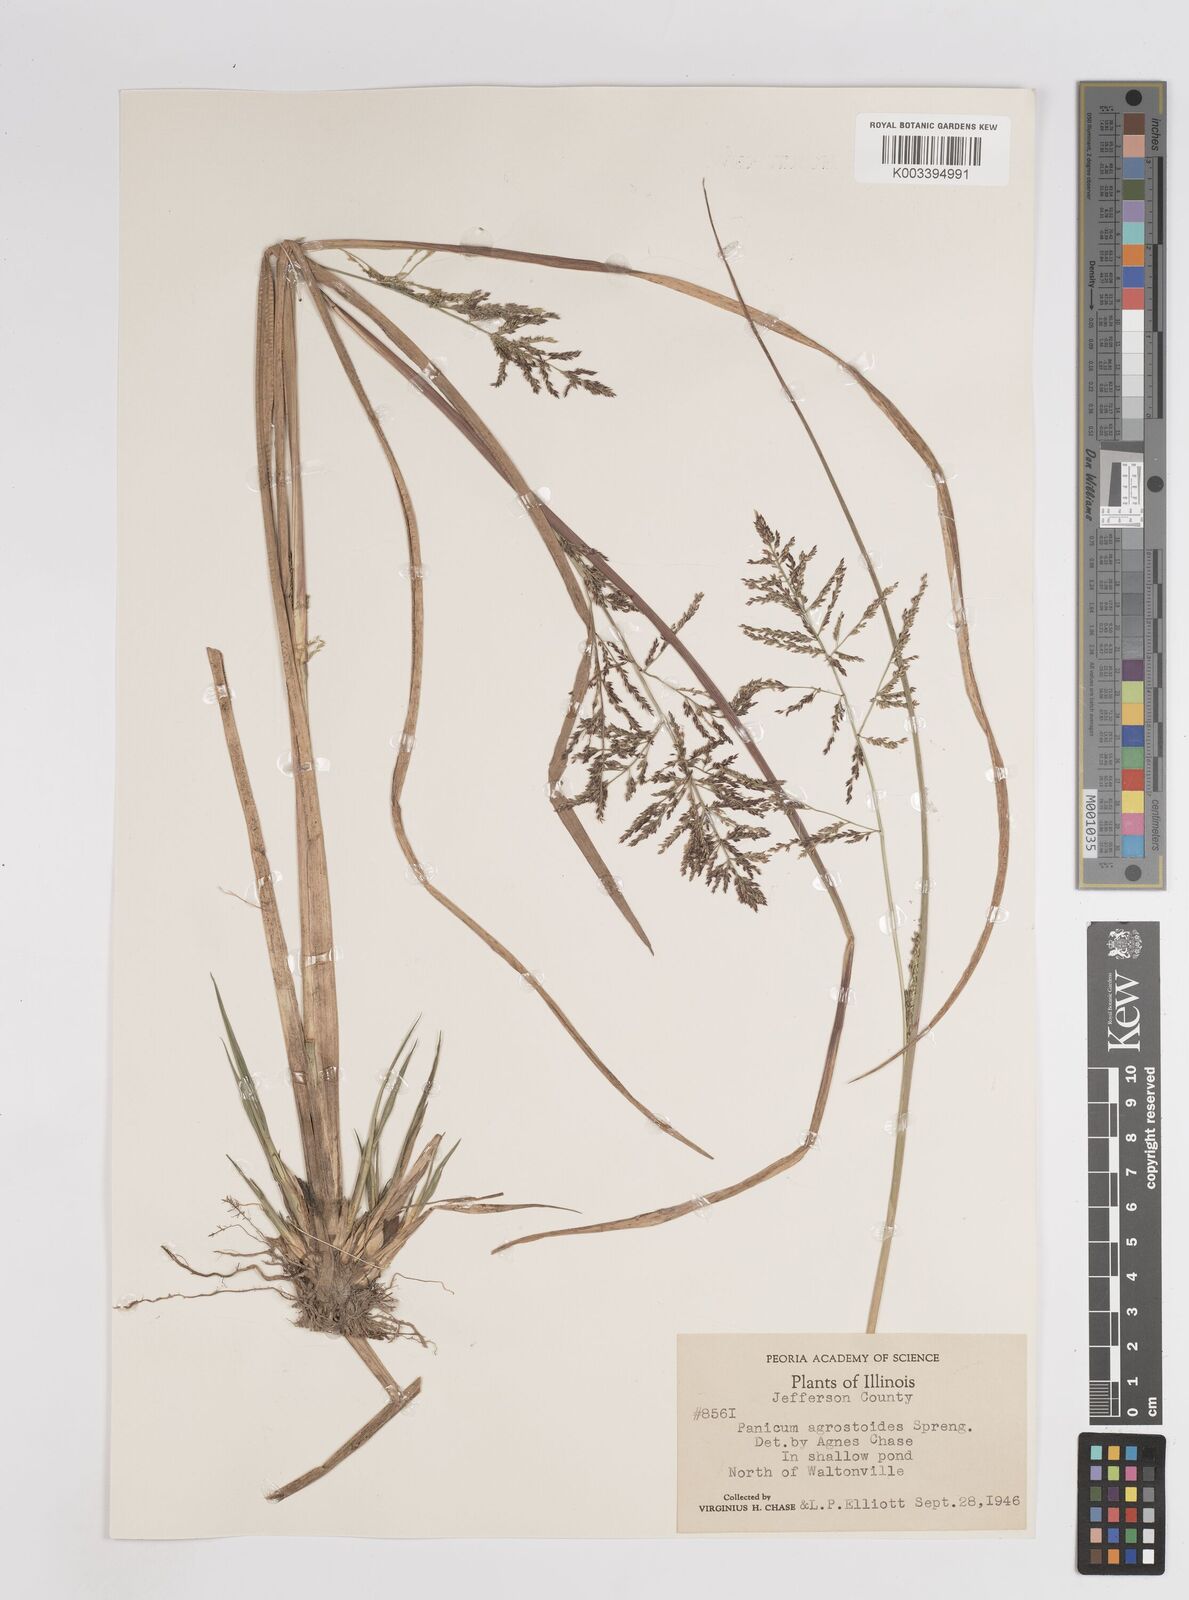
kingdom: Plantae
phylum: Tracheophyta
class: Liliopsida
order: Poales
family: Poaceae
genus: Coleataenia
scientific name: Coleataenia rigidula
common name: Redtop panicgrass
